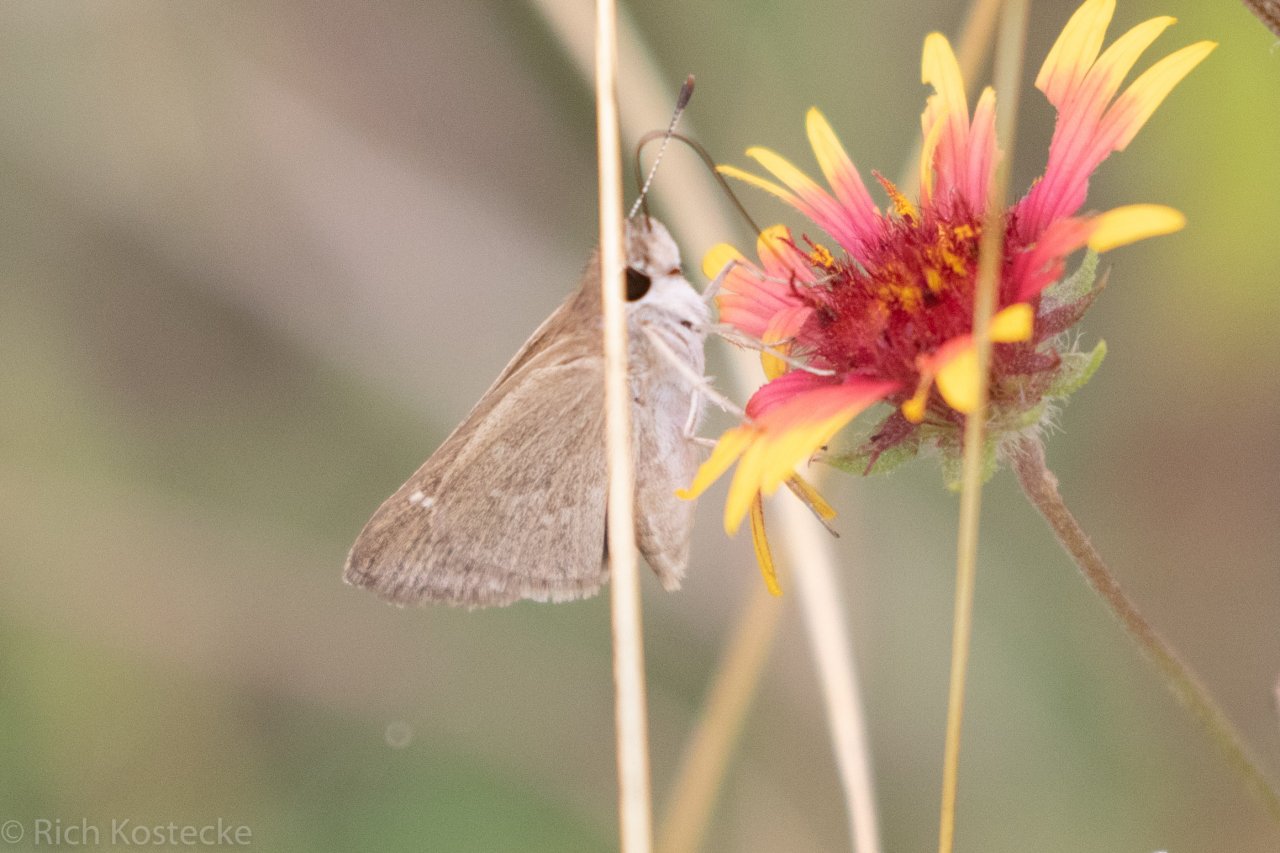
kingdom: Animalia
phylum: Arthropoda
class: Insecta
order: Lepidoptera
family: Hesperiidae
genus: Lerodea
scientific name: Lerodea eufala
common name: Eufala Skipper
